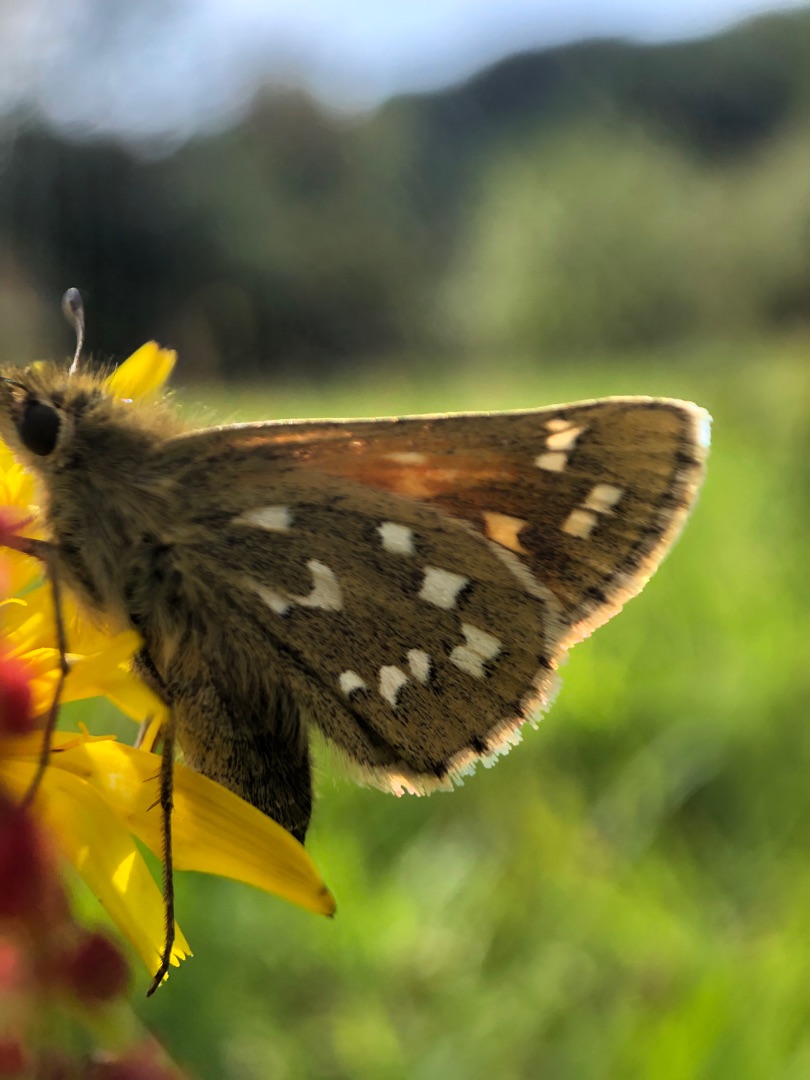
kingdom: Animalia
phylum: Arthropoda
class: Insecta
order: Lepidoptera
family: Hesperiidae
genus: Hesperia
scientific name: Hesperia comma
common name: Kommabredpande
